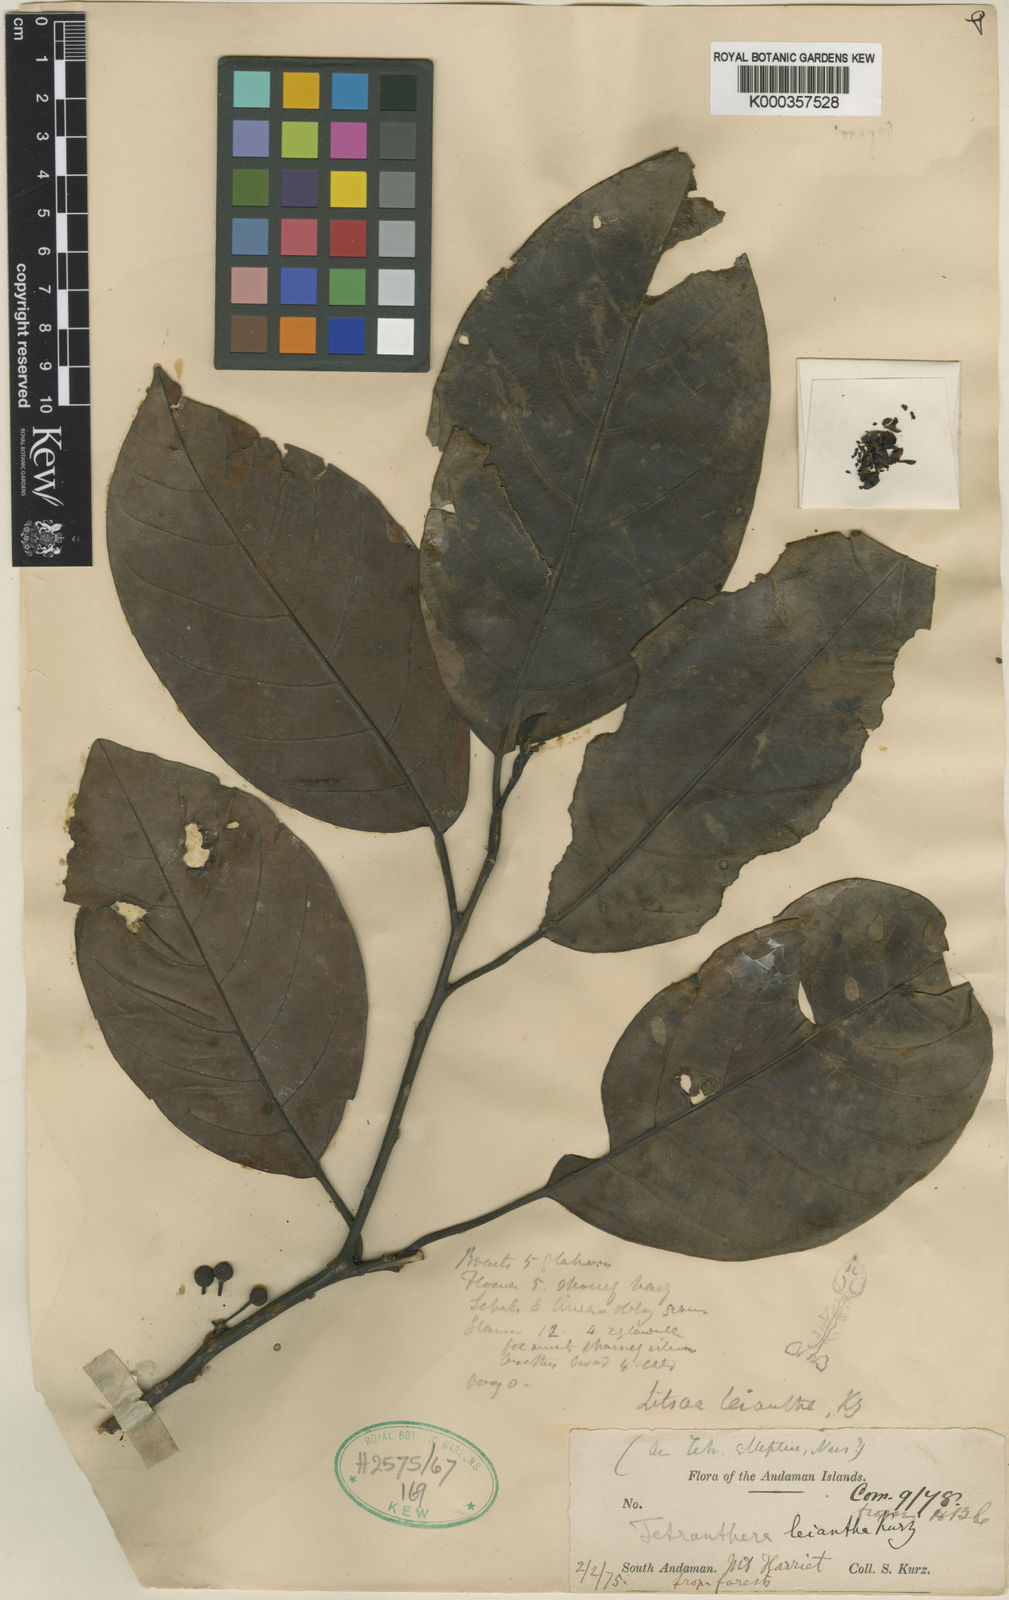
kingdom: Plantae
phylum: Tracheophyta
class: Magnoliopsida
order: Laurales
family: Lauraceae
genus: Litsea
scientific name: Litsea leiantha
